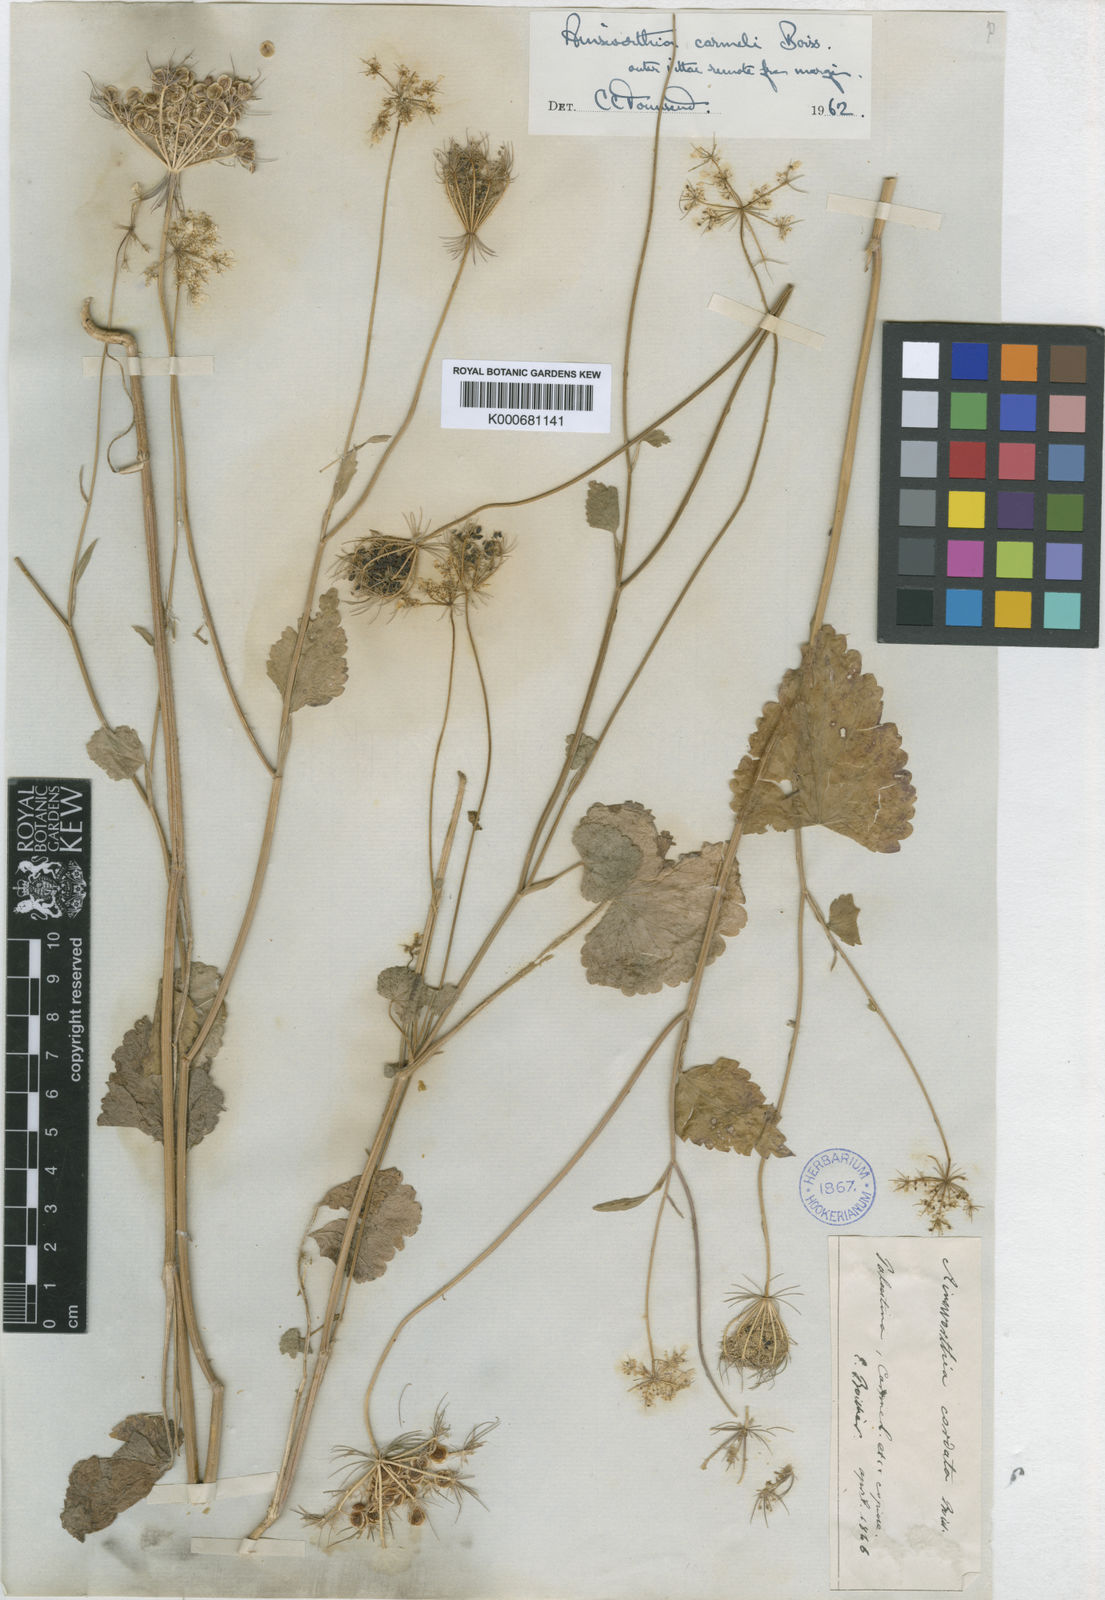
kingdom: Plantae
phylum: Tracheophyta
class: Magnoliopsida
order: Apiales
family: Apiaceae
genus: Synelcosciadium
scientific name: Synelcosciadium carmeli
